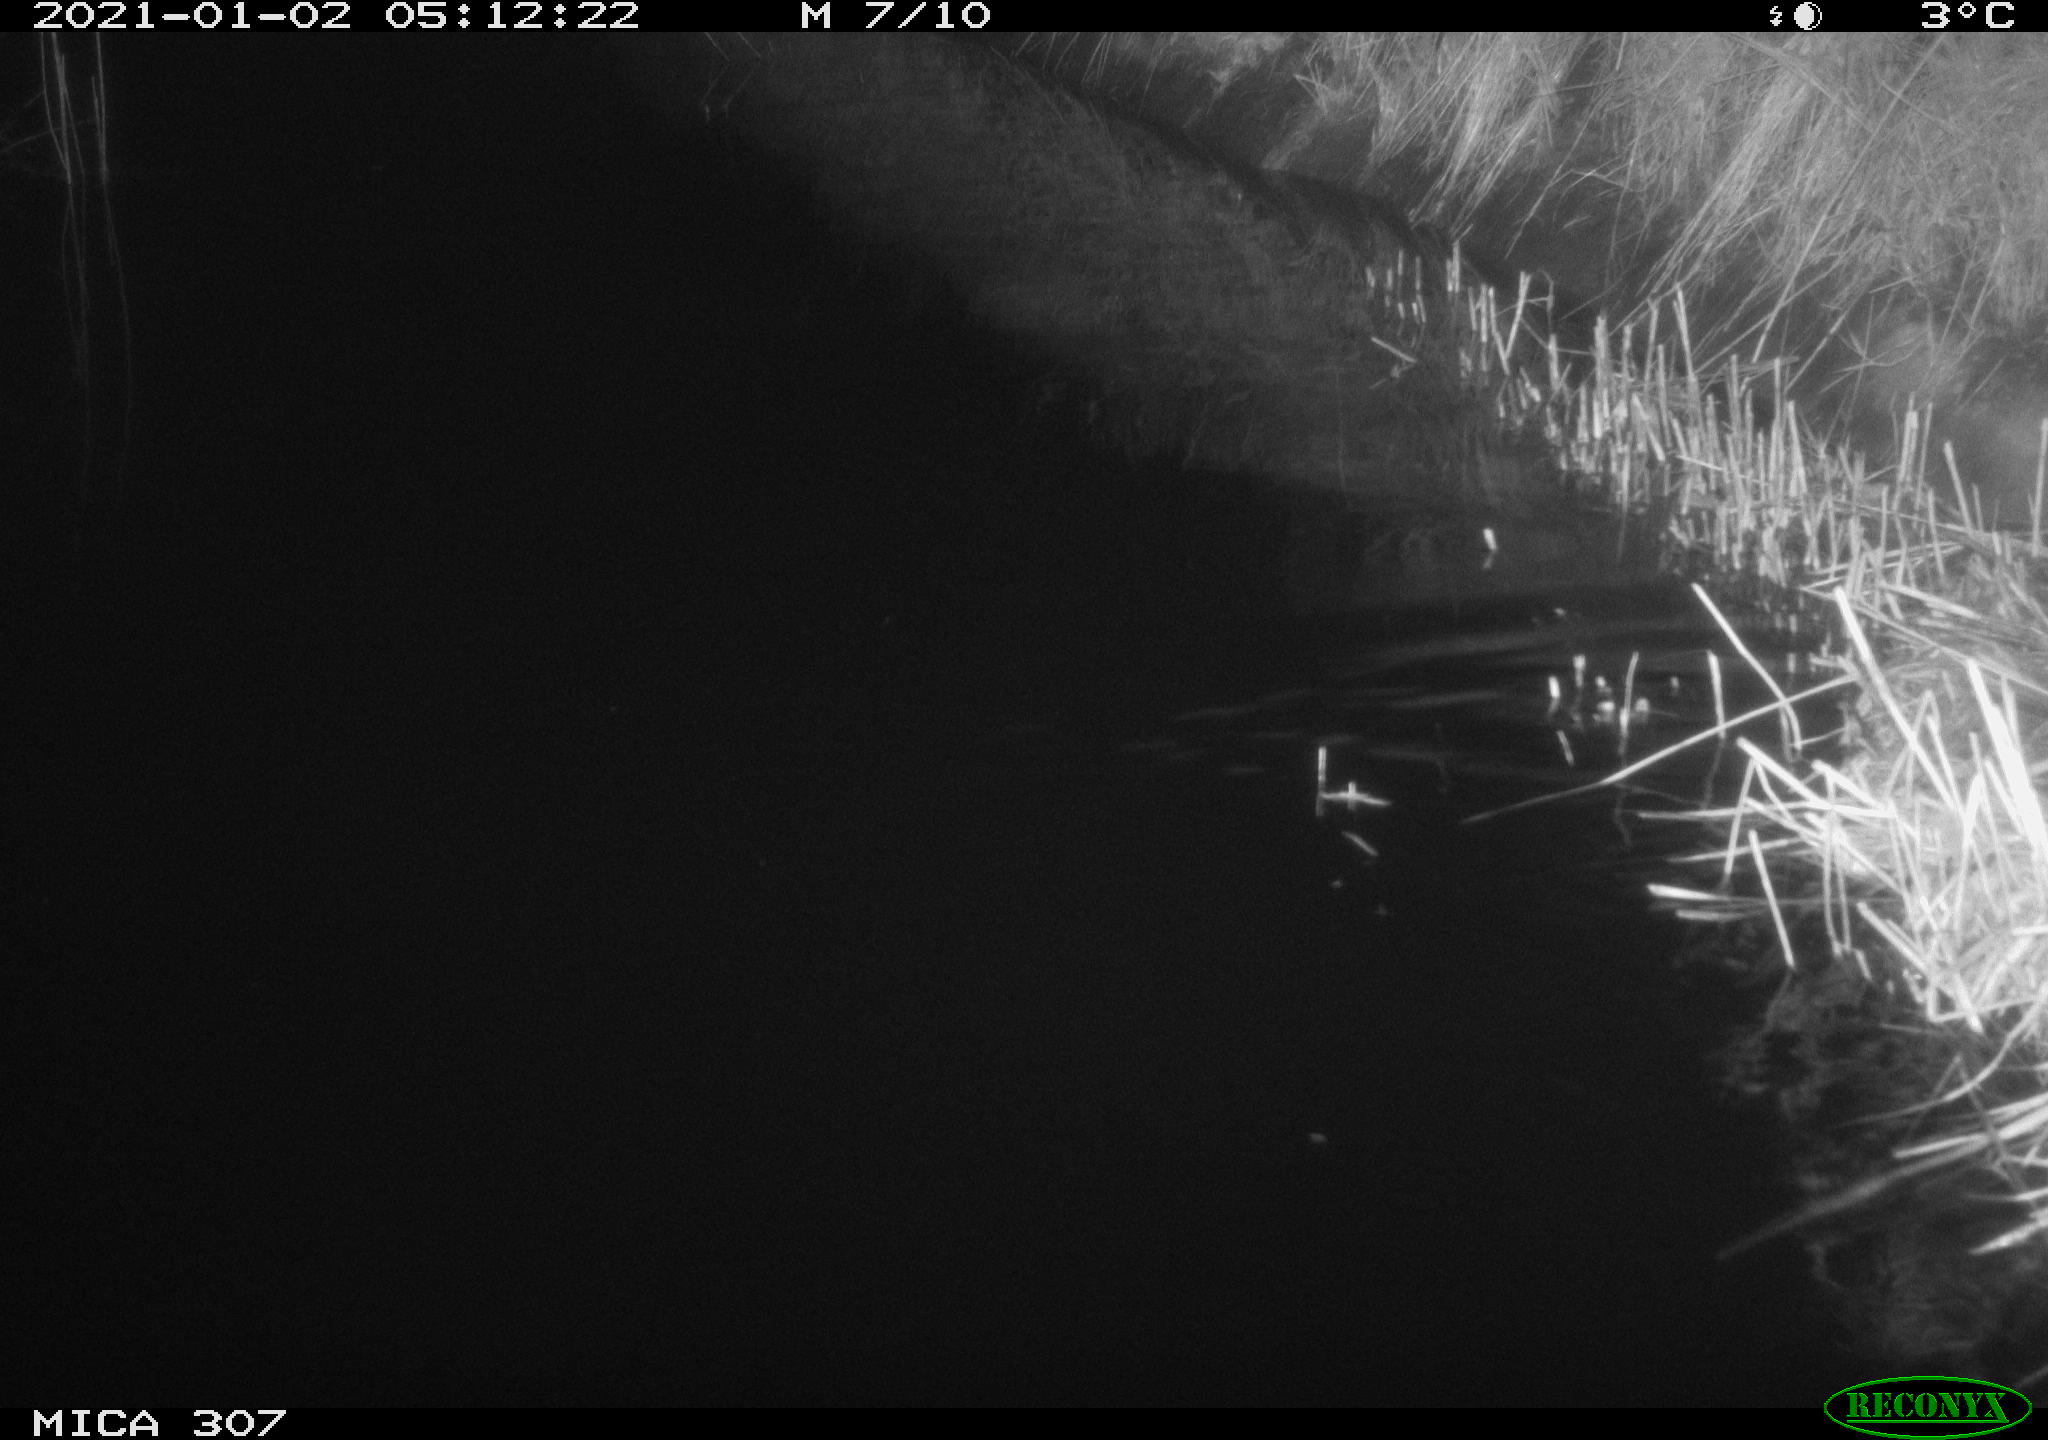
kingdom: Animalia
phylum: Chordata
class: Mammalia
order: Rodentia
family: Muridae
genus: Rattus
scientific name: Rattus norvegicus
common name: Brown rat
